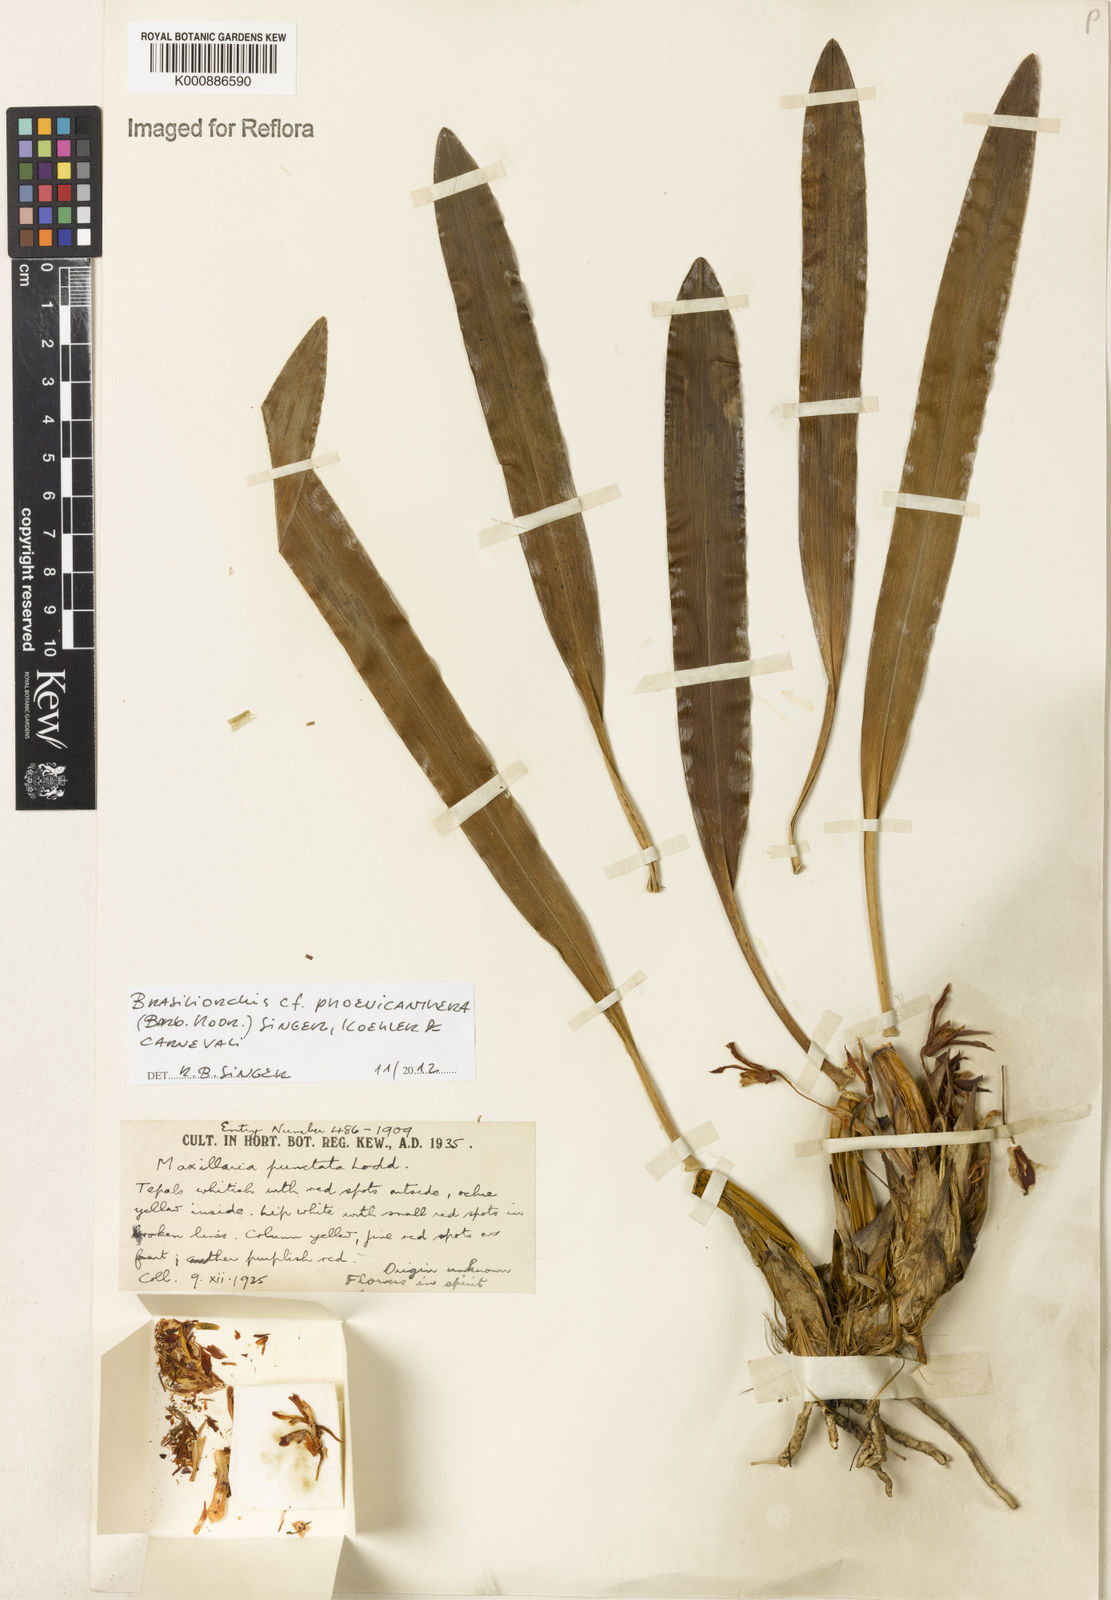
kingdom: Plantae
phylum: Tracheophyta
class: Liliopsida
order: Asparagales
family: Orchidaceae
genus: Maxillaria
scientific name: Maxillaria phoenicanthera
